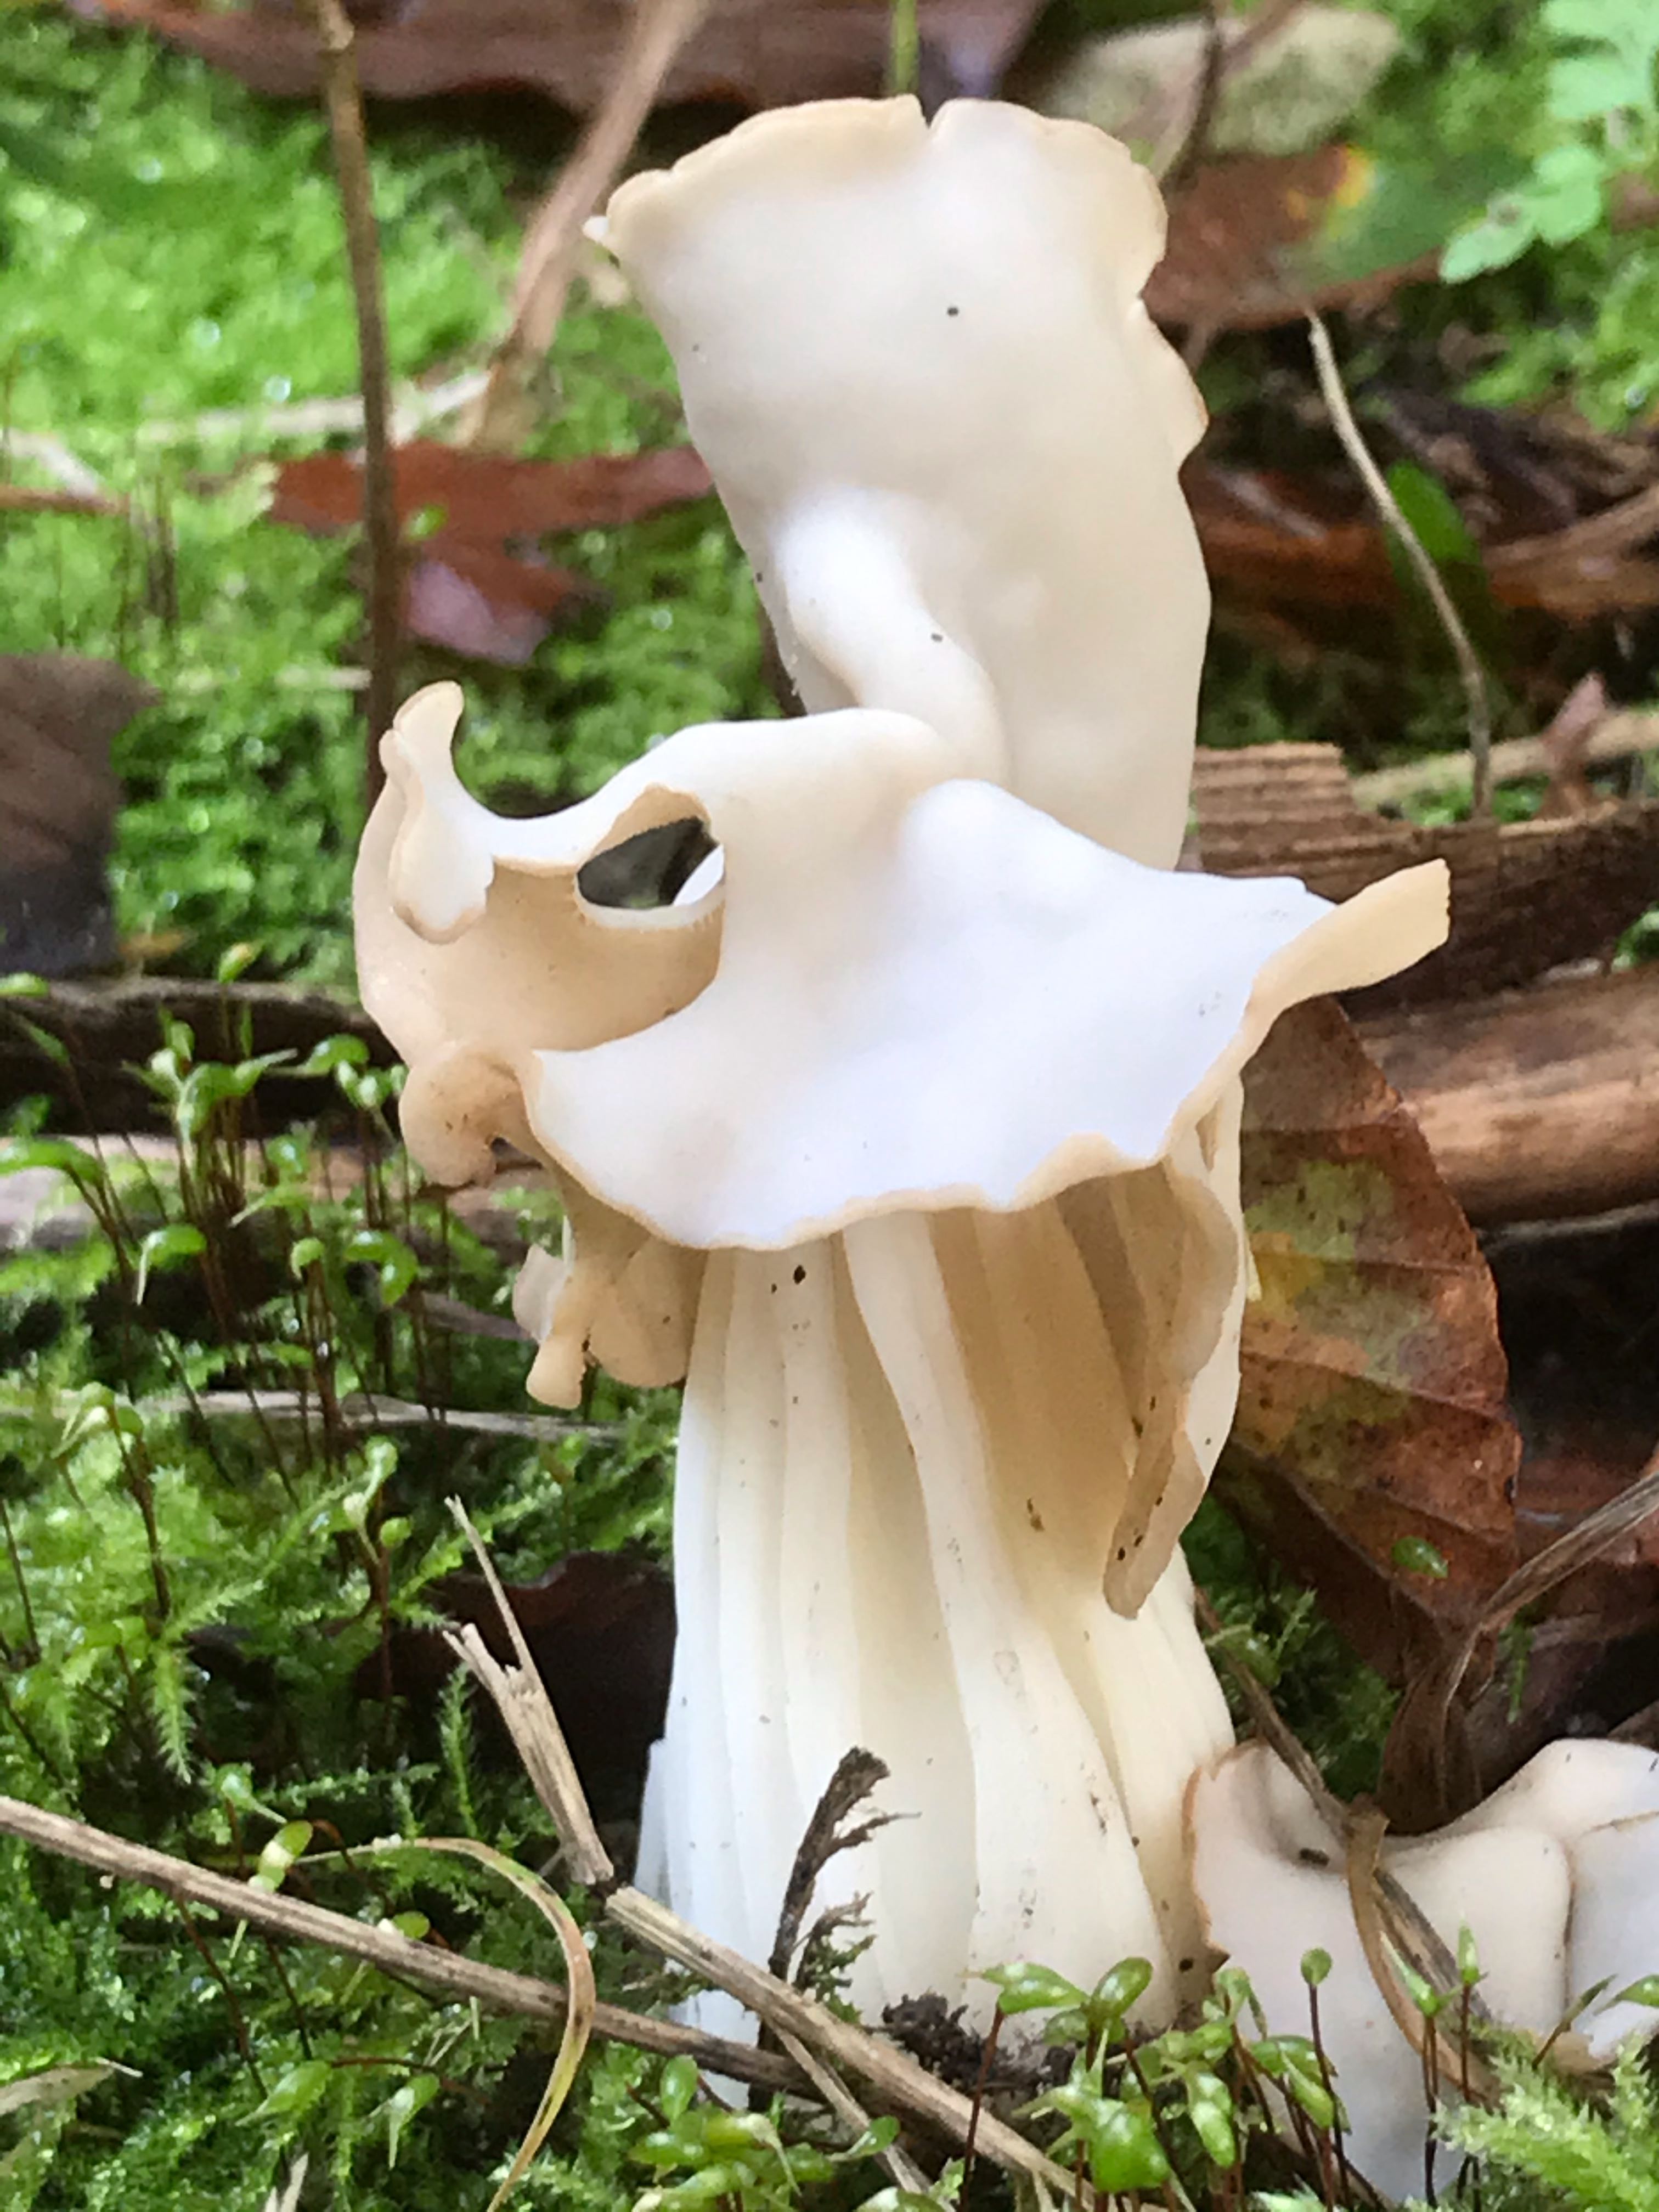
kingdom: Fungi
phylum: Ascomycota
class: Pezizomycetes
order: Pezizales
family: Helvellaceae
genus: Helvella
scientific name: Helvella crispa
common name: kruset foldhat
